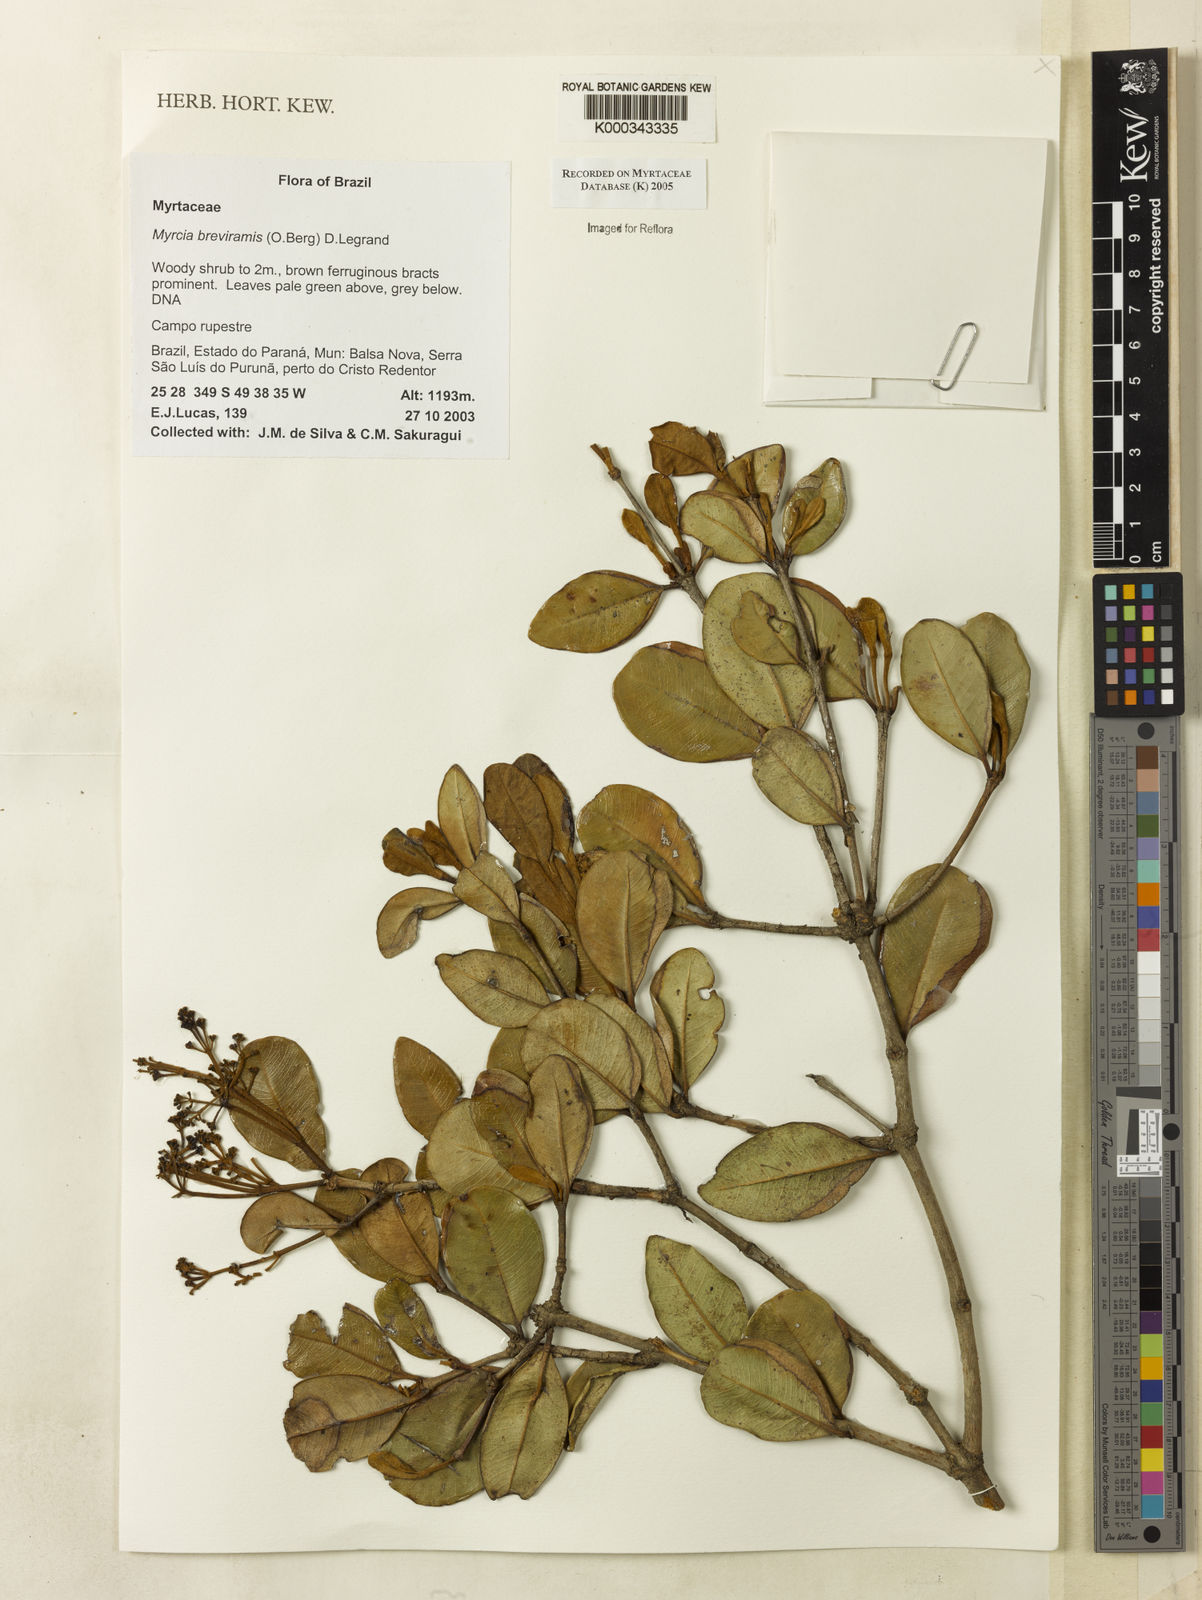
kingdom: Plantae
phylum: Tracheophyta
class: Magnoliopsida
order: Myrtales
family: Myrtaceae
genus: Myrcia
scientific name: Myrcia pulchra
